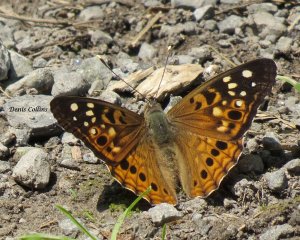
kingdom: Animalia
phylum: Arthropoda
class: Insecta
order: Lepidoptera
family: Nymphalidae
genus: Asterocampa
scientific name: Asterocampa celtis
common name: Hackberry Emperor
